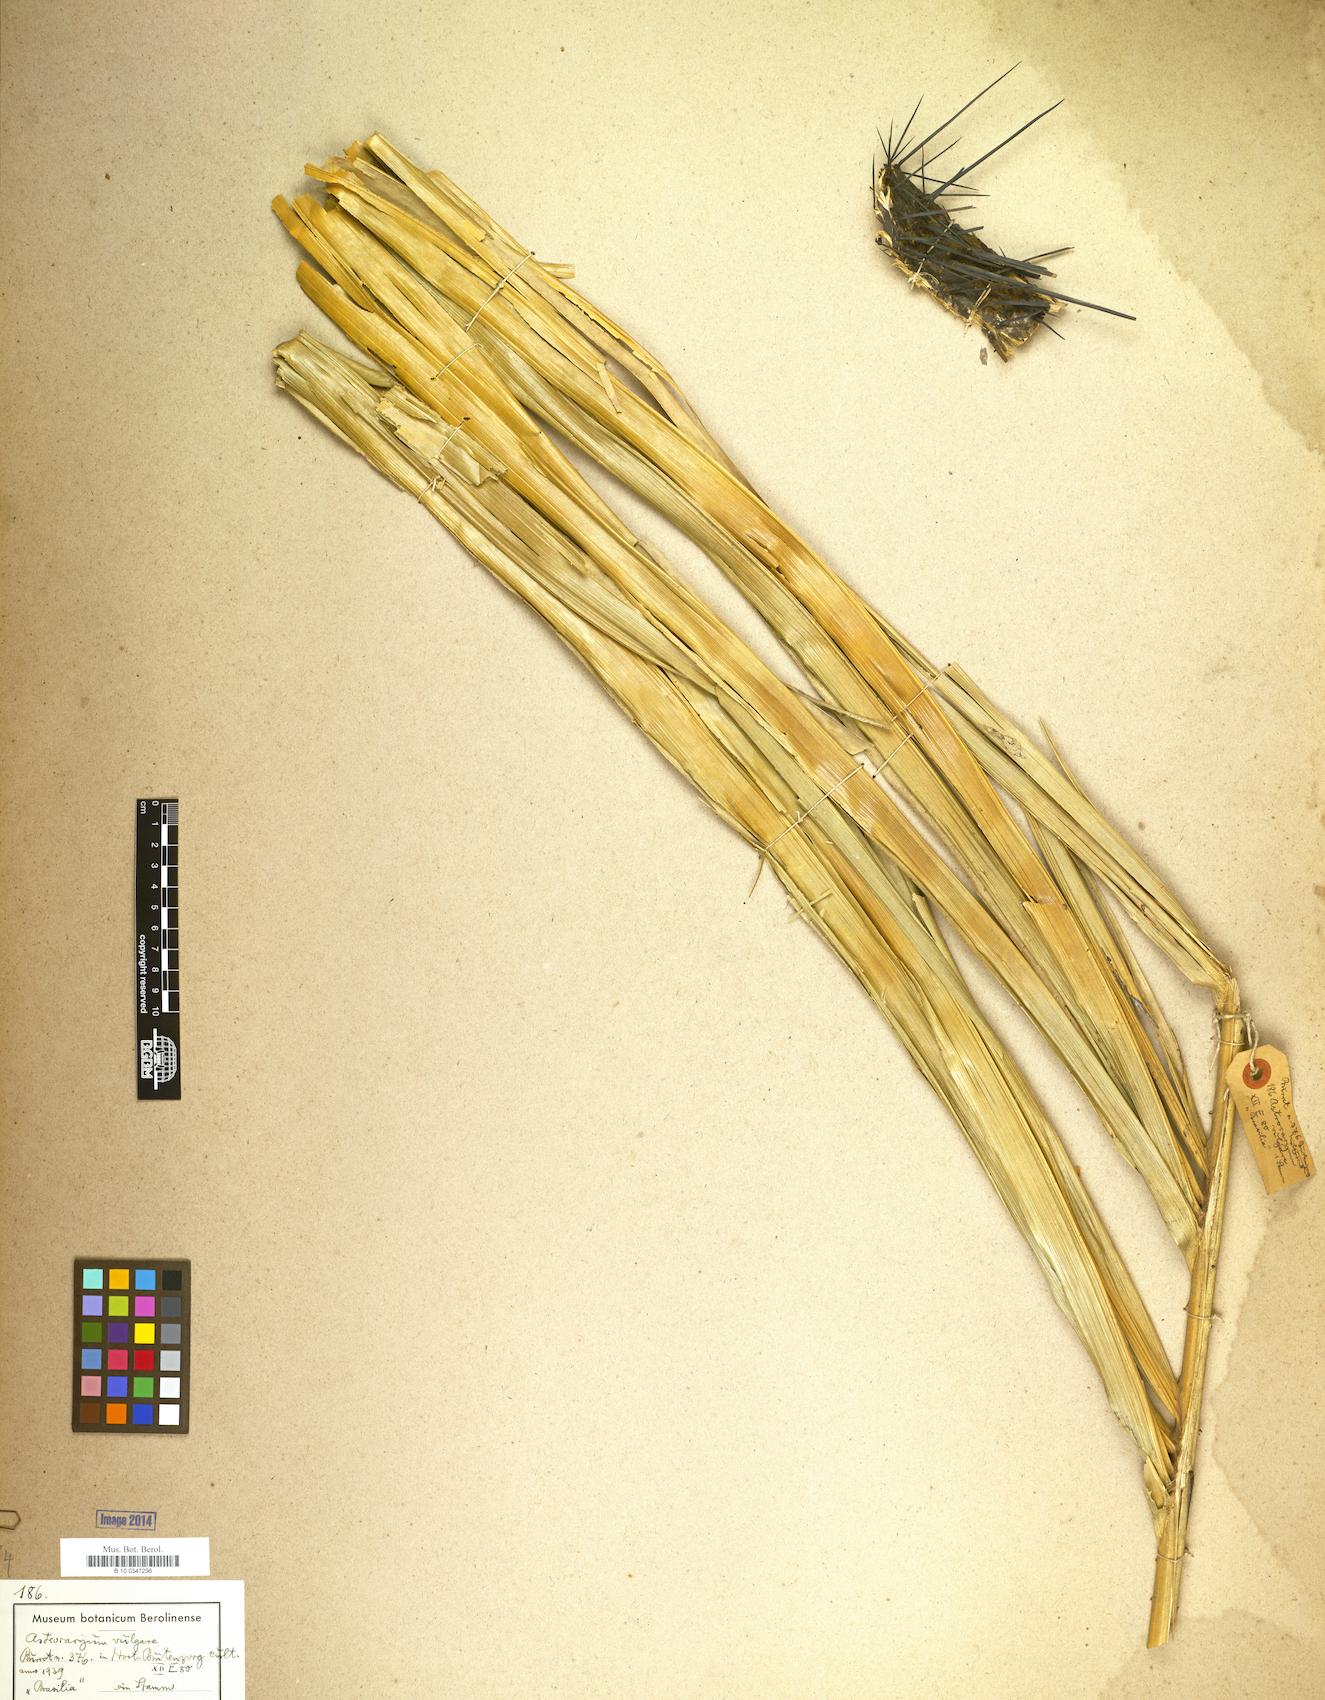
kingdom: Plantae
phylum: Tracheophyta
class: Liliopsida
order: Arecales
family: Arecaceae
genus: Astrocaryum
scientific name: Astrocaryum vulgare
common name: Tucum palm
